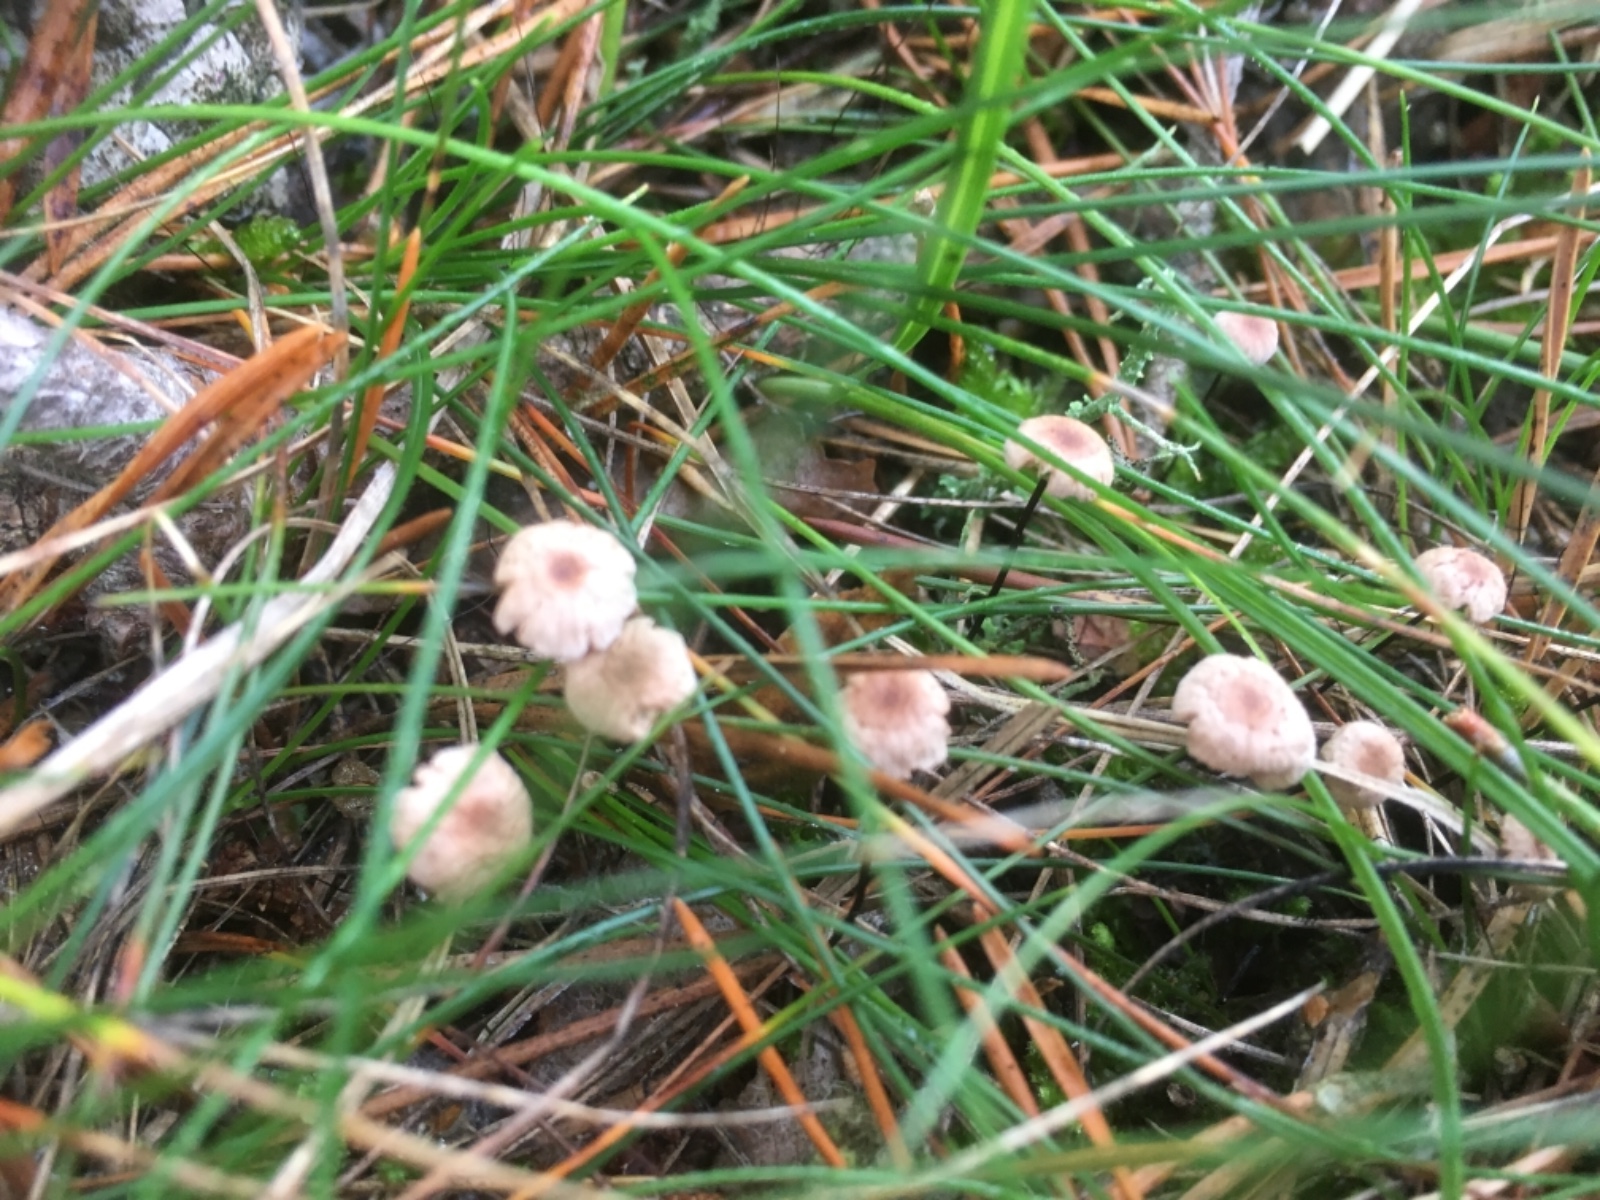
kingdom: Fungi
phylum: Basidiomycota
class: Agaricomycetes
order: Agaricales
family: Omphalotaceae
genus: Gymnopus
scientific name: Gymnopus androsaceus
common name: trådstokket fladhat
